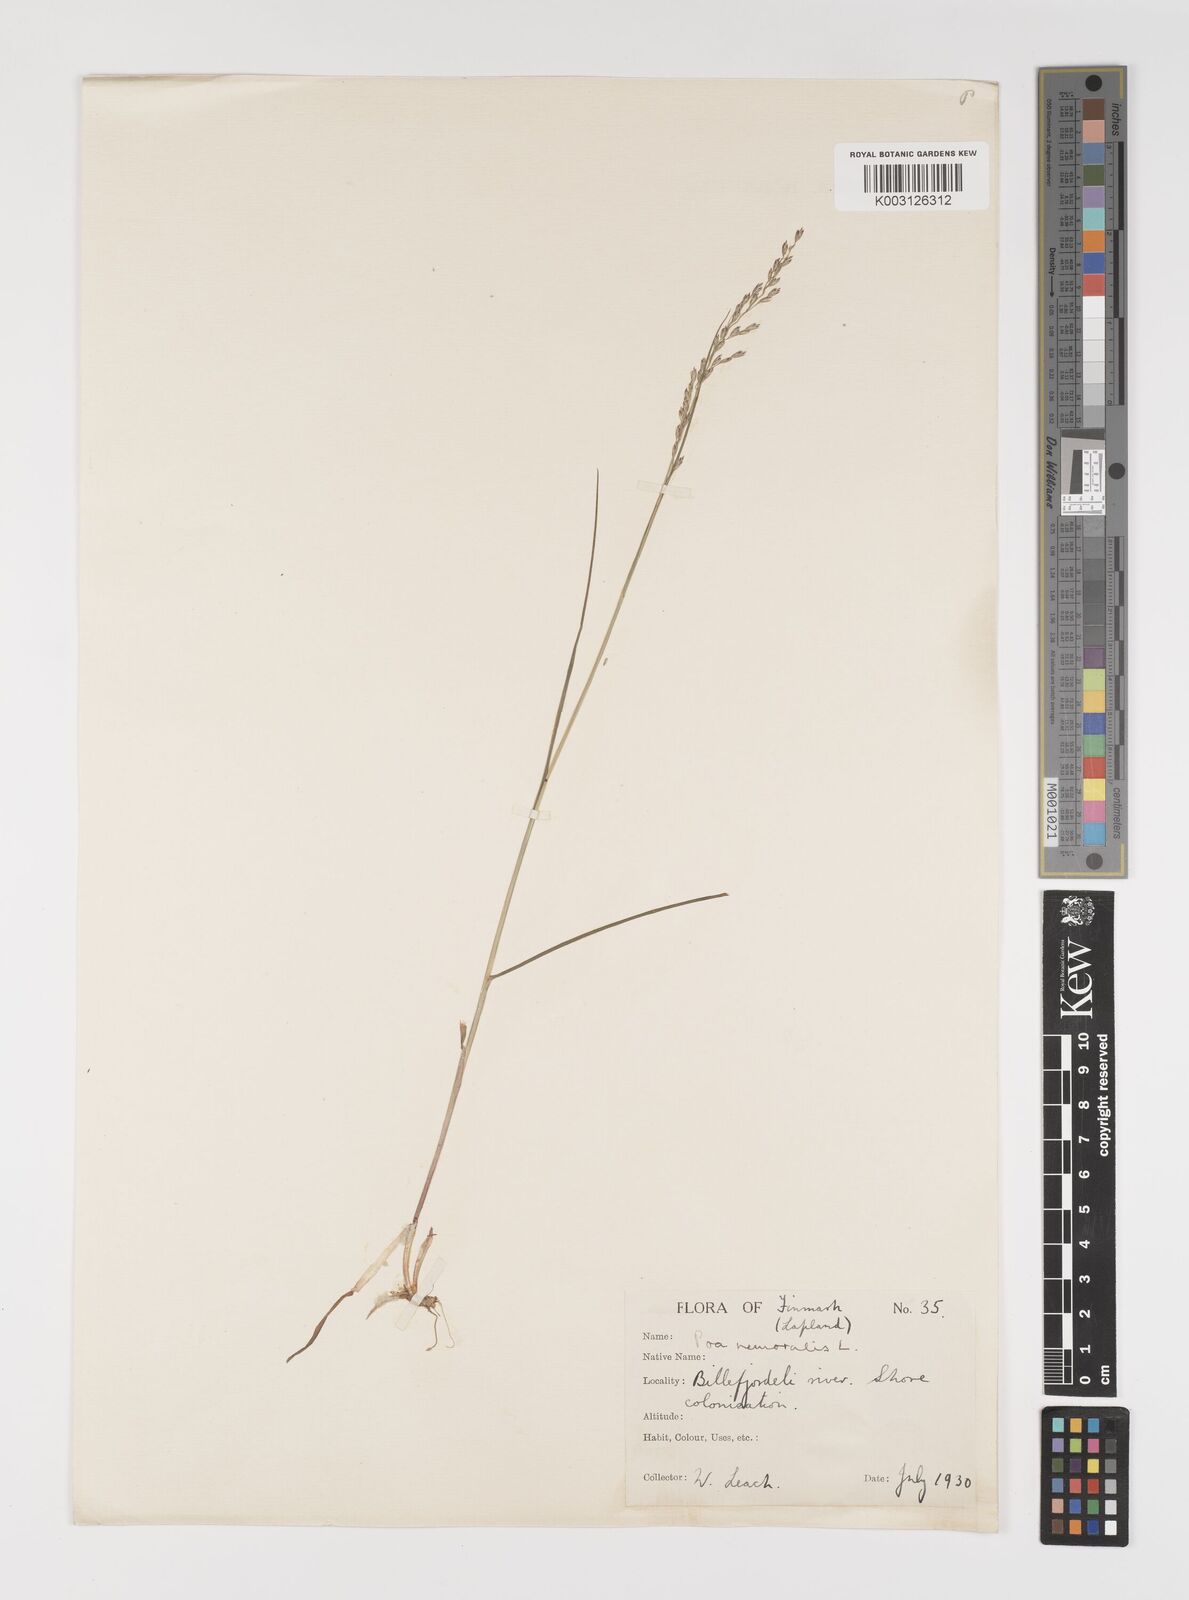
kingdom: Plantae
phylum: Tracheophyta
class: Liliopsida
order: Poales
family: Poaceae
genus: Poa
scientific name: Poa glauca
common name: Glaucous bluegrass
